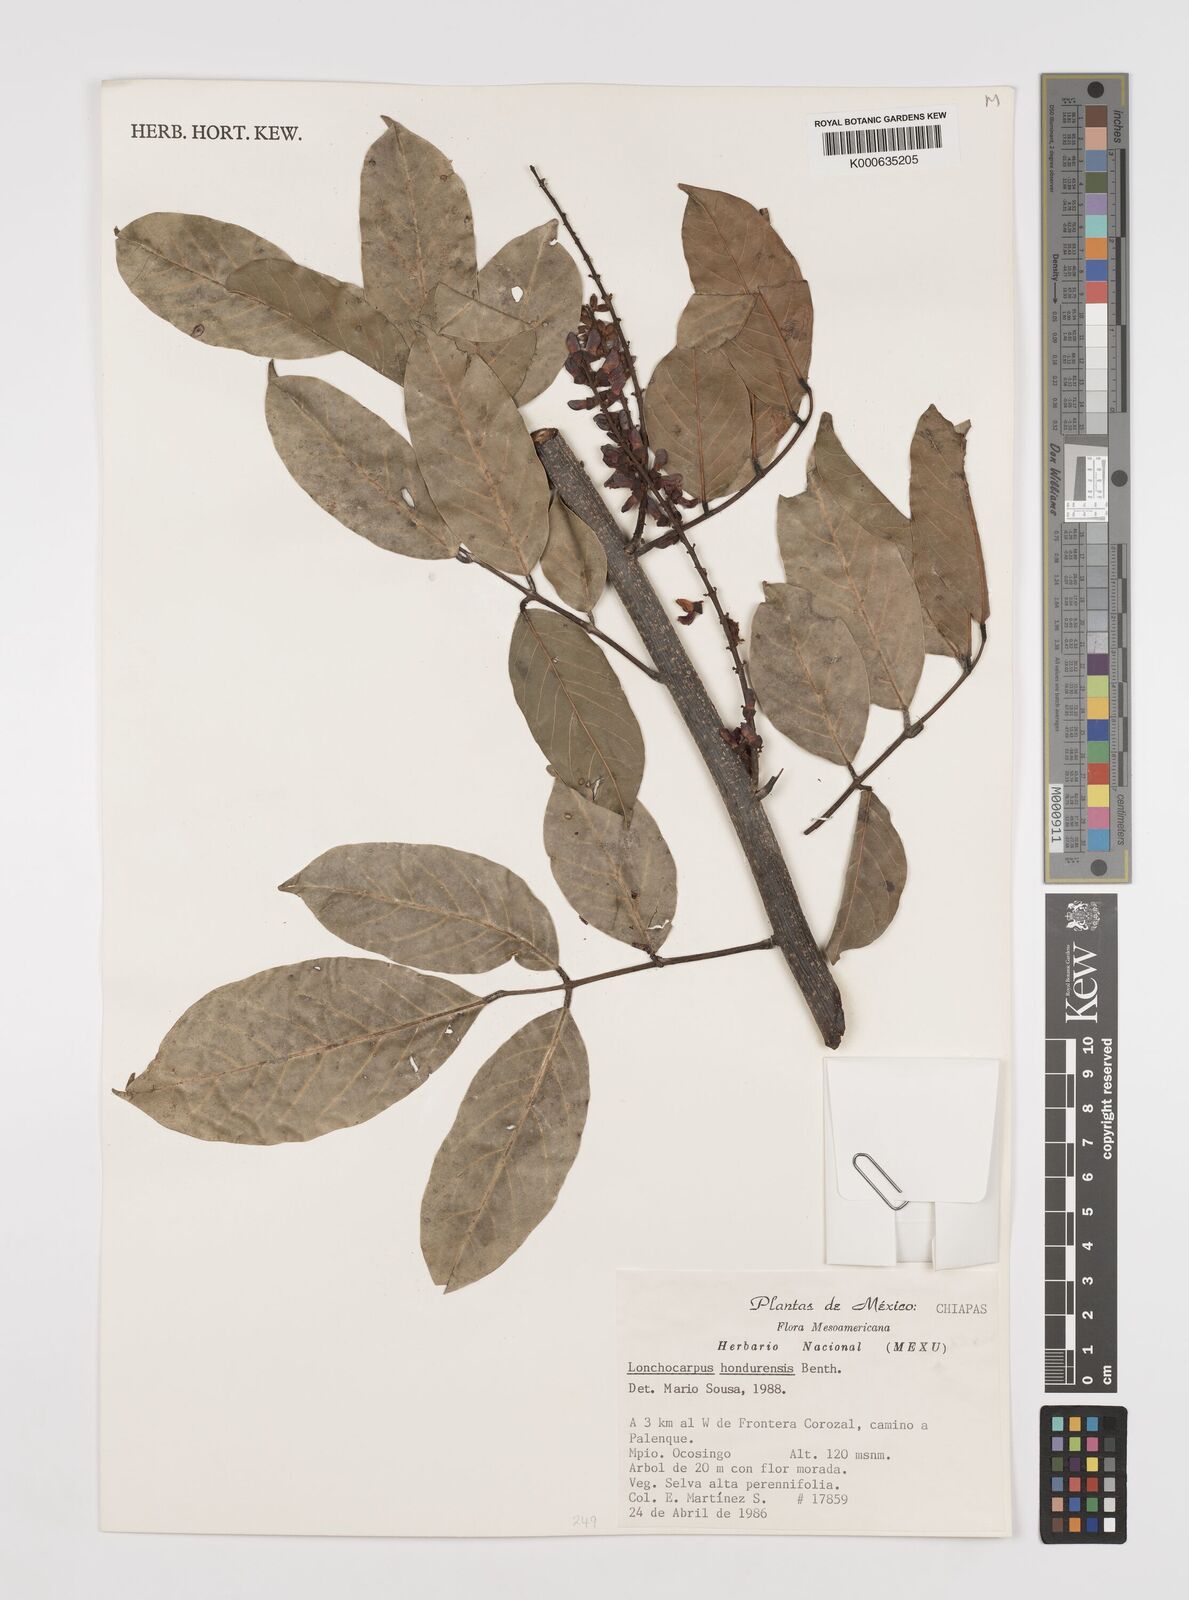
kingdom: Plantae
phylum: Tracheophyta
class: Magnoliopsida
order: Fabales
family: Fabaceae
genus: Lonchocarpus
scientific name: Lonchocarpus hondurensis
